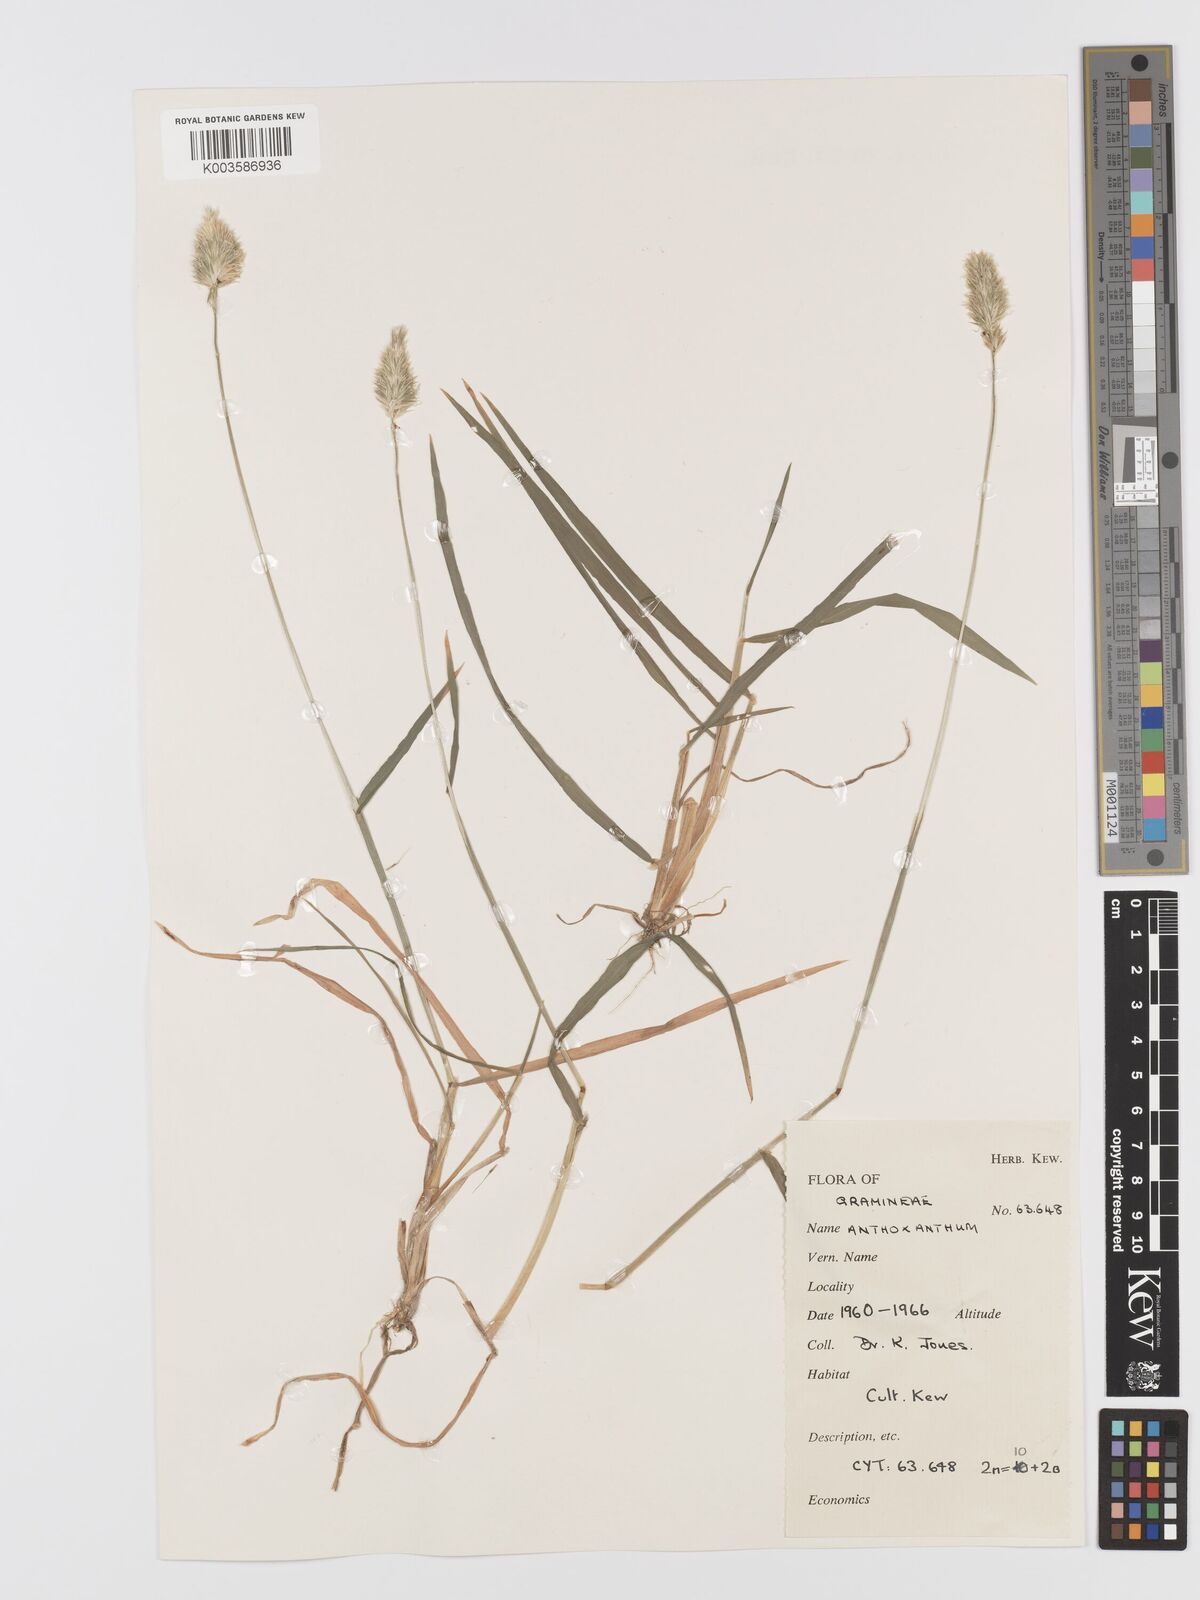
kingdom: Plantae
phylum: Tracheophyta
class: Liliopsida
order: Poales
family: Poaceae
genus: Anthoxanthum
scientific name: Anthoxanthum
